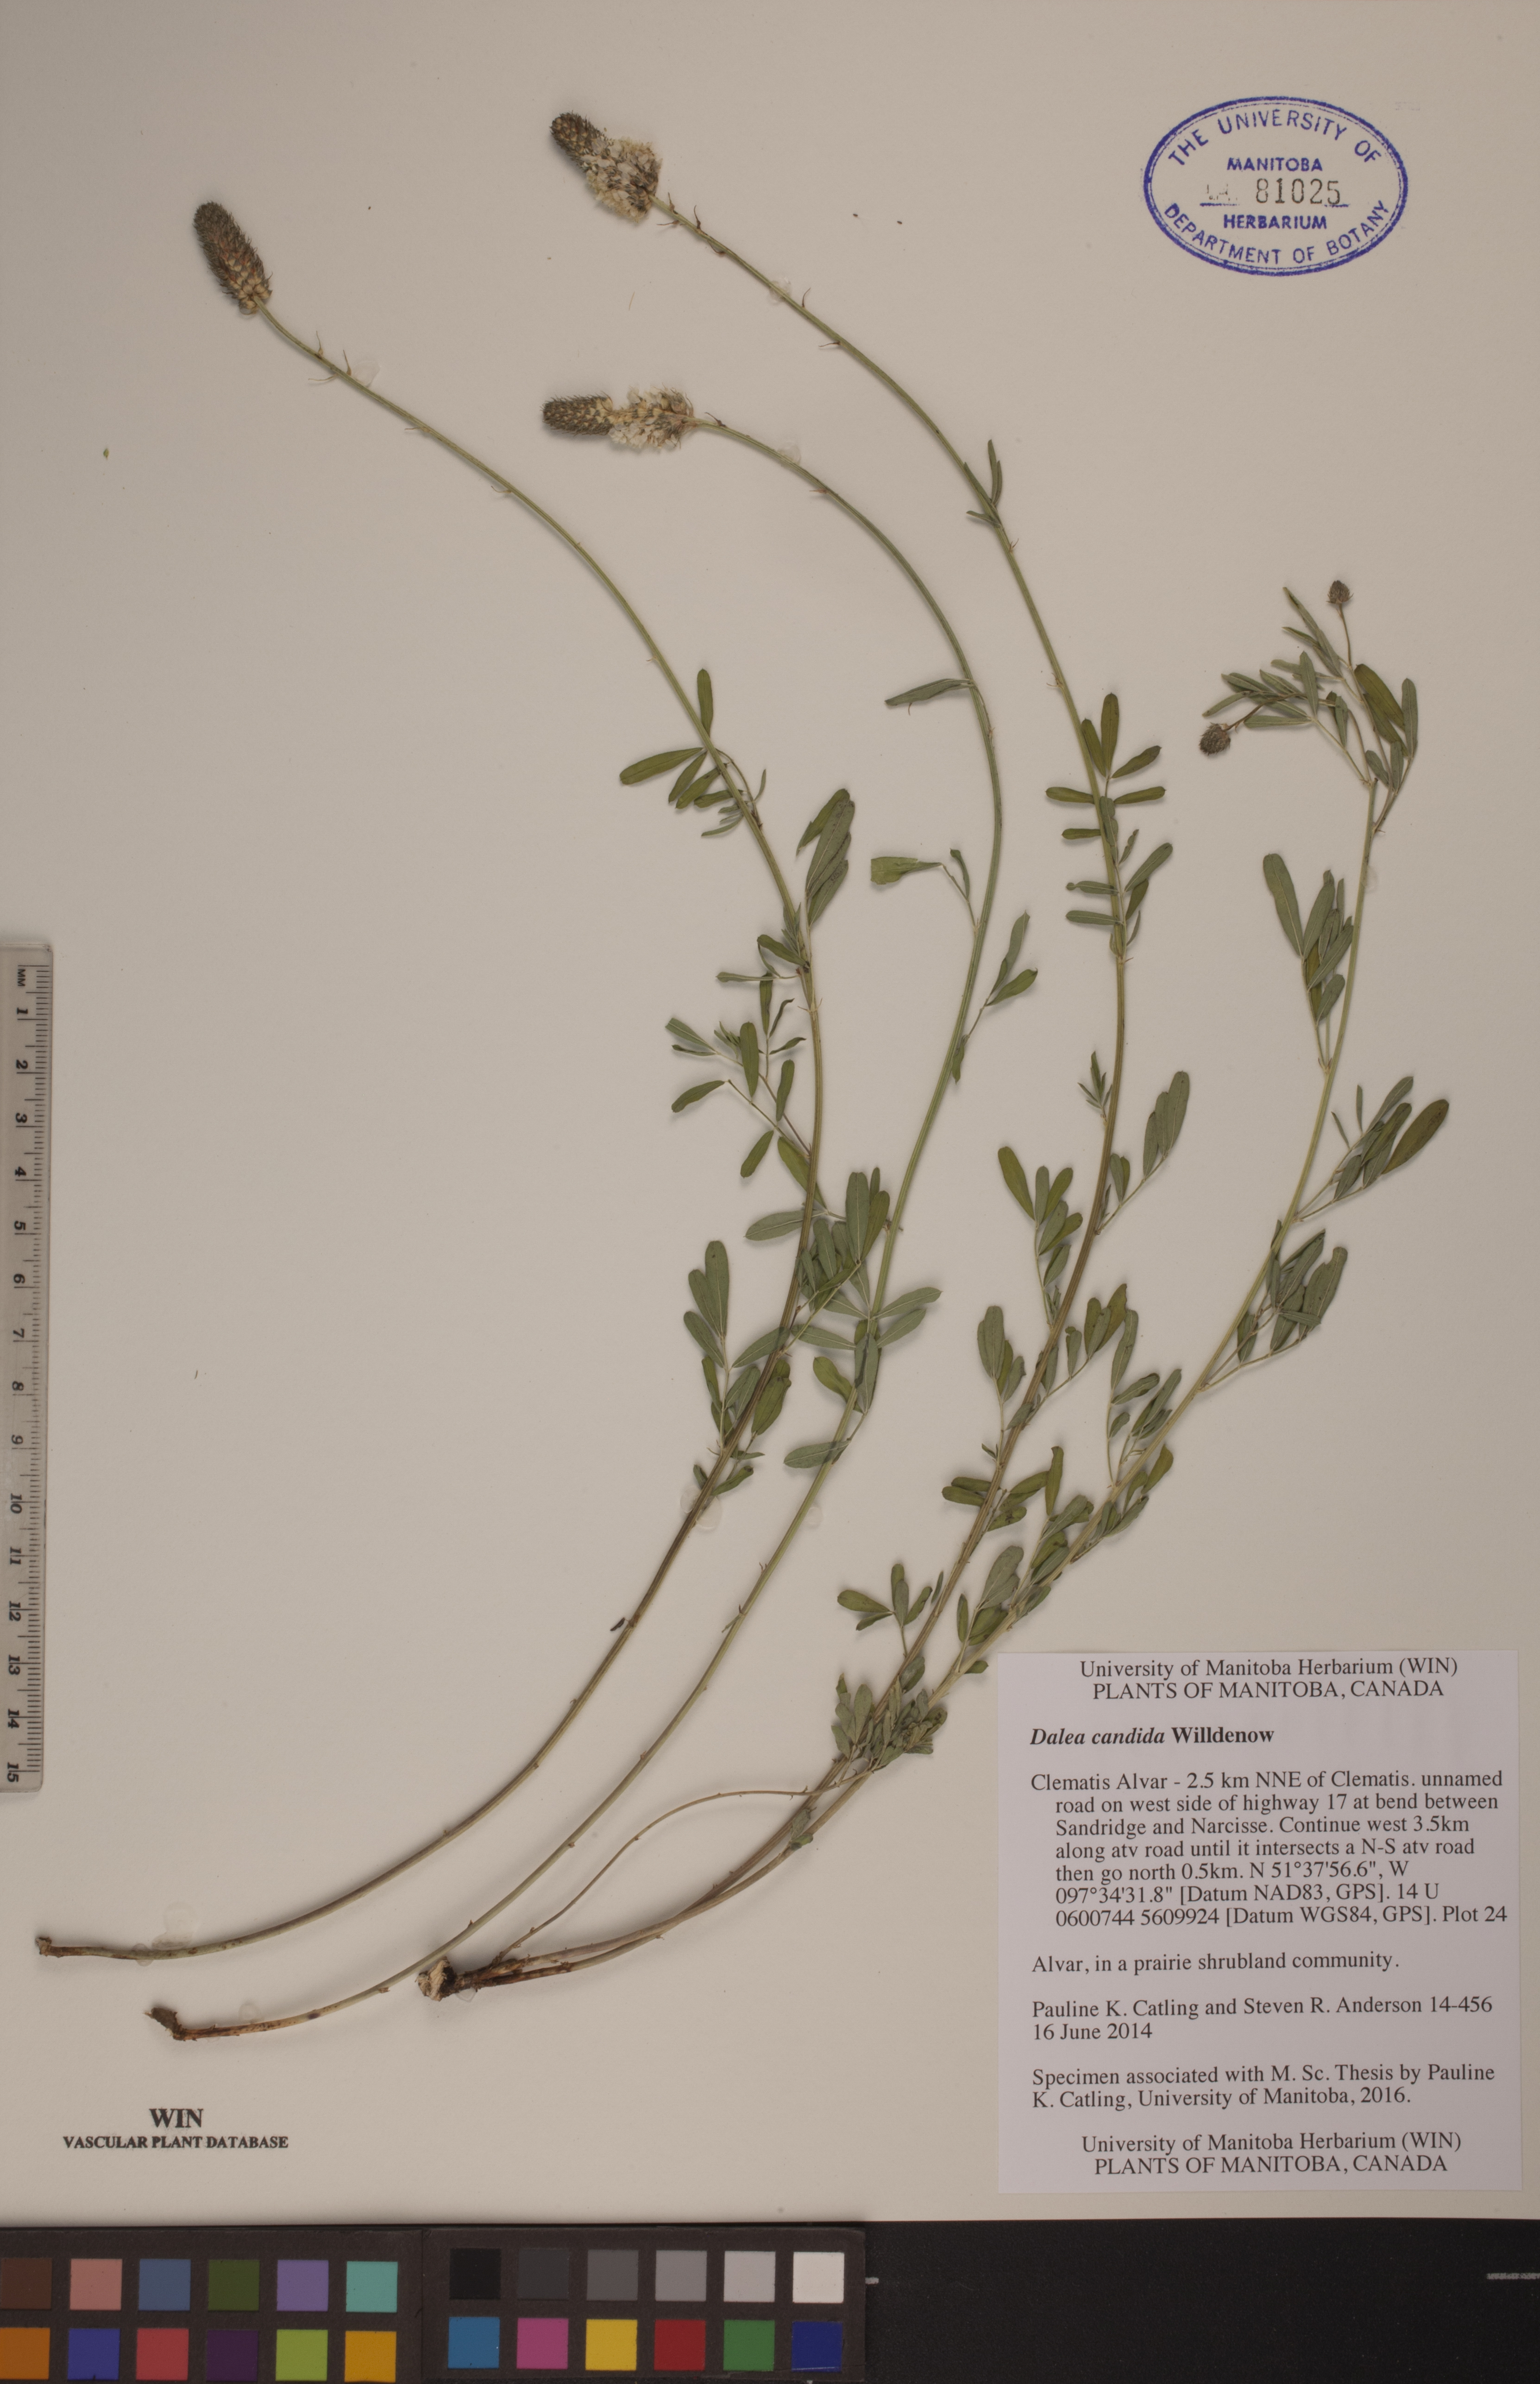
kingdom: Plantae
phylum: Tracheophyta
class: Magnoliopsida
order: Fabales
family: Fabaceae
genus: Dalea
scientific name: Dalea candida
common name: White prairie-clover
